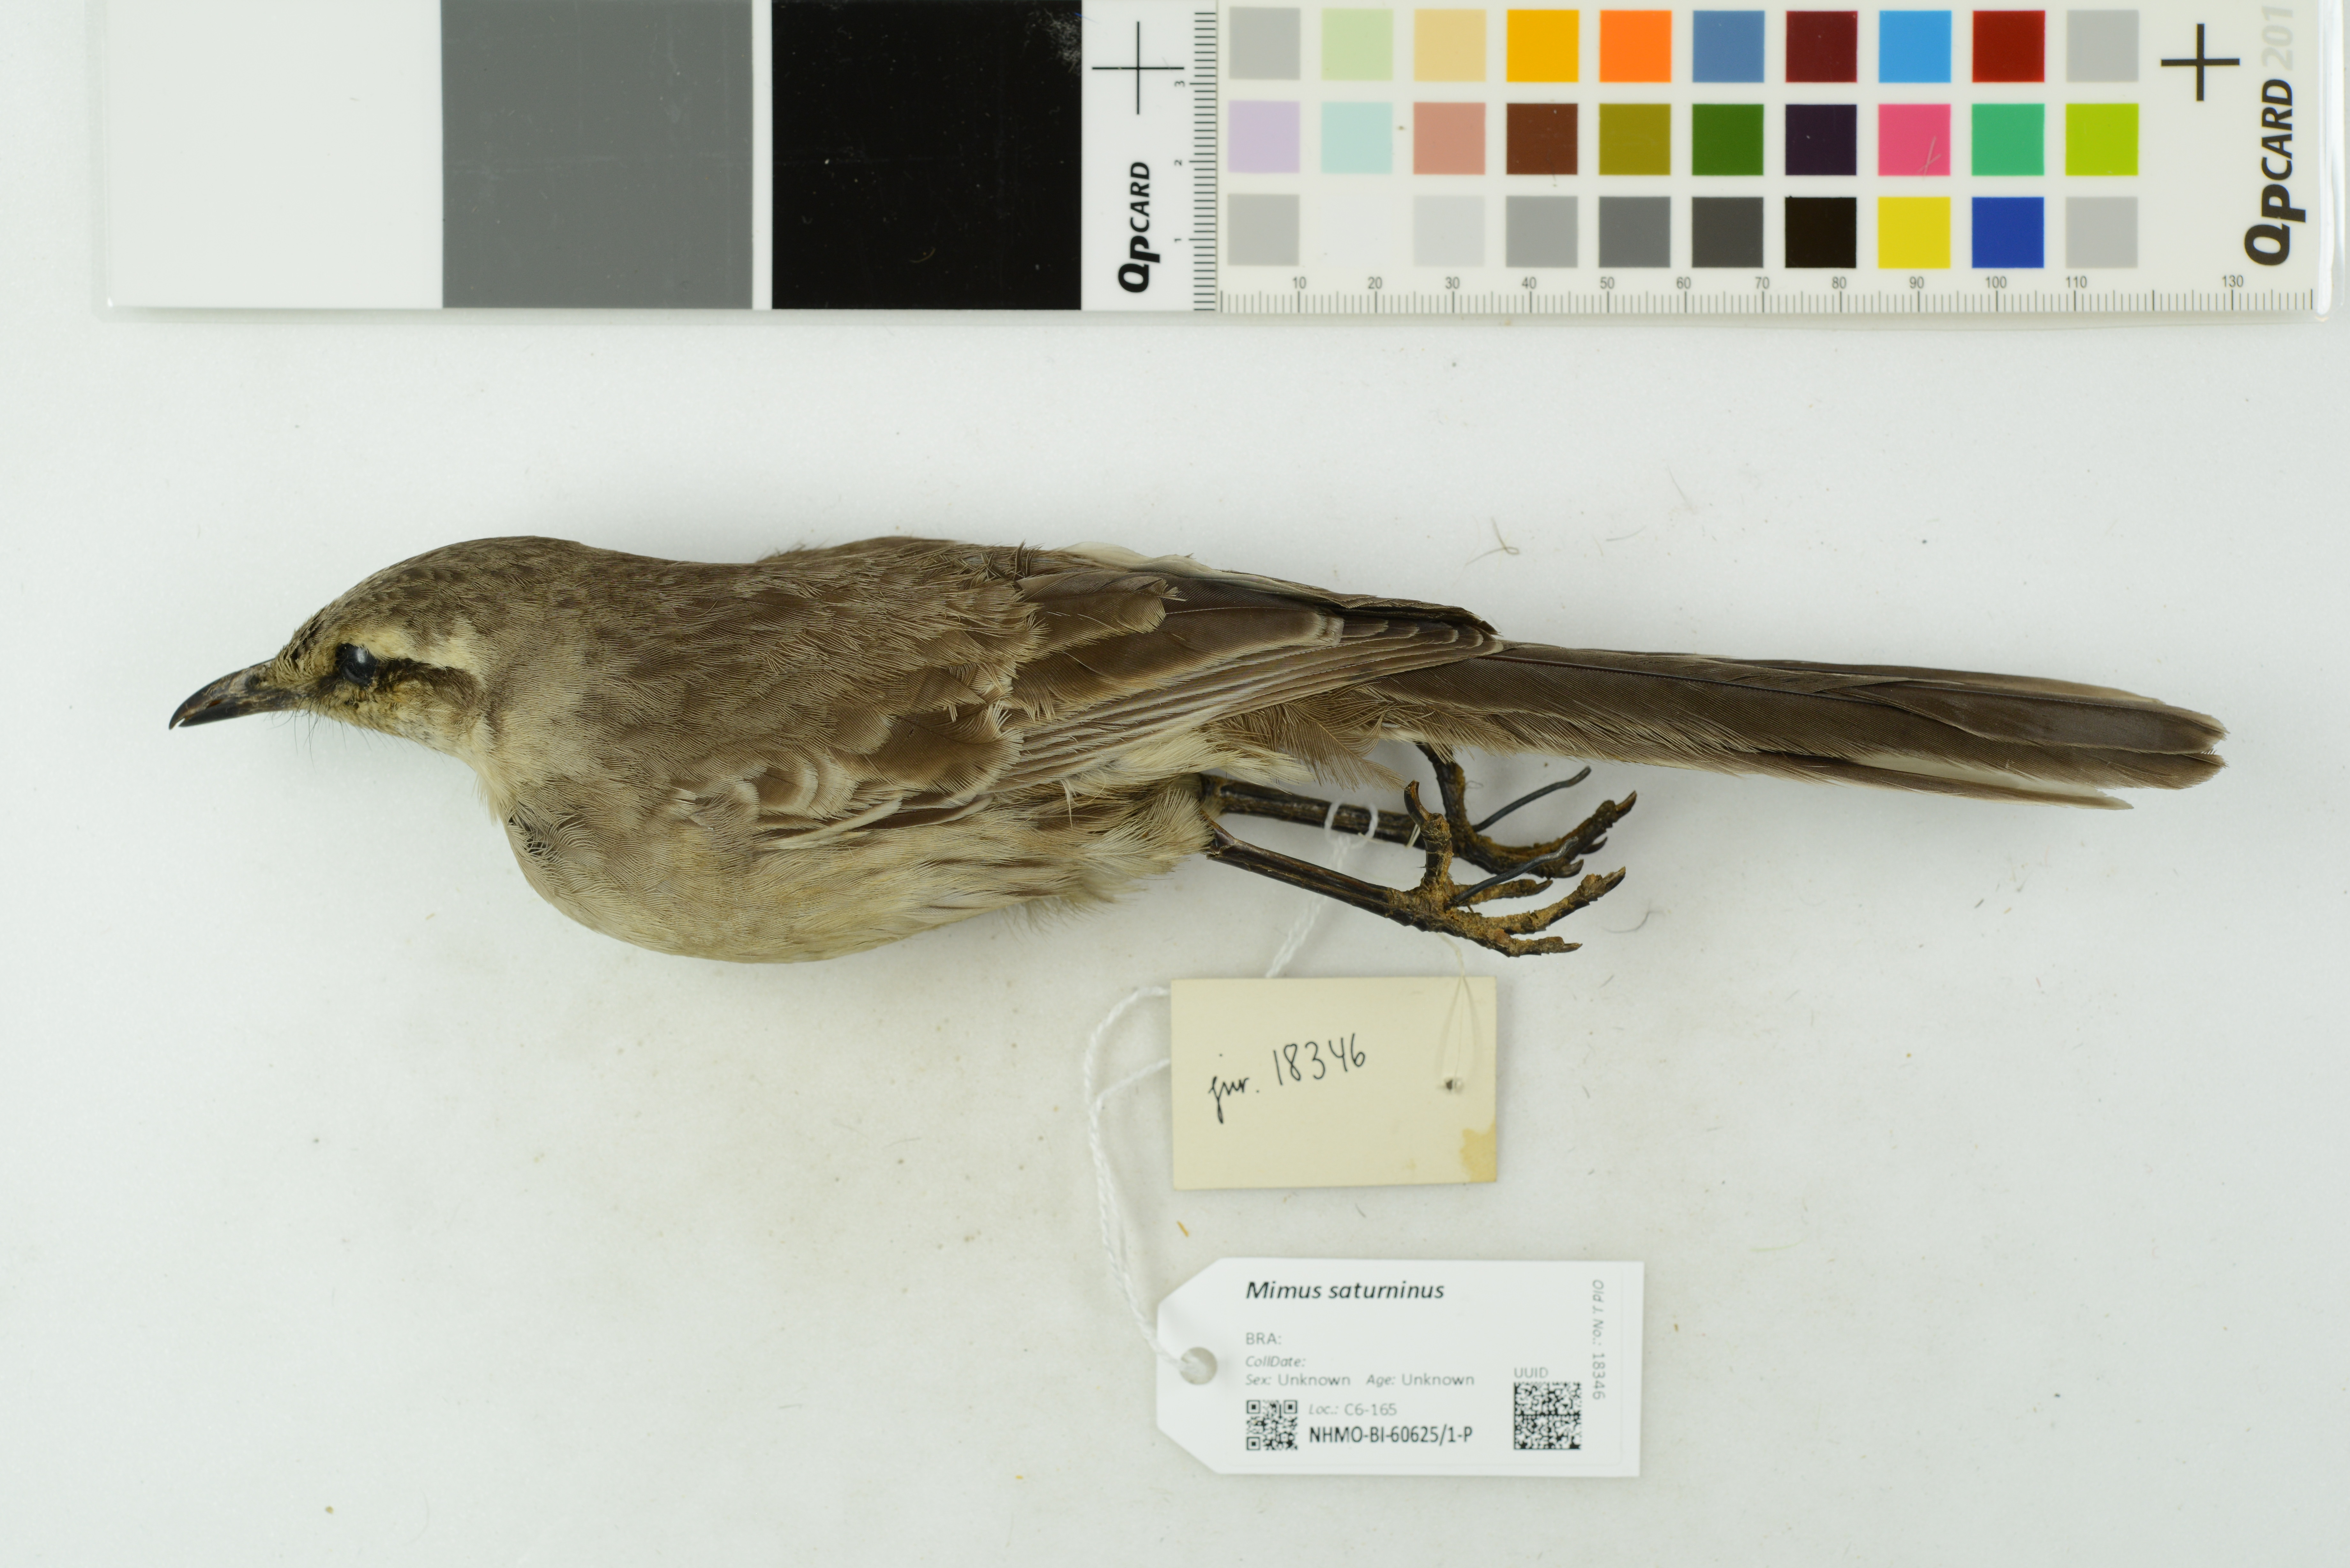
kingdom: Animalia
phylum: Chordata
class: Aves
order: Passeriformes
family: Mimidae
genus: Mimus
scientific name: Mimus saturninus
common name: Chalk-browed mockingbird
